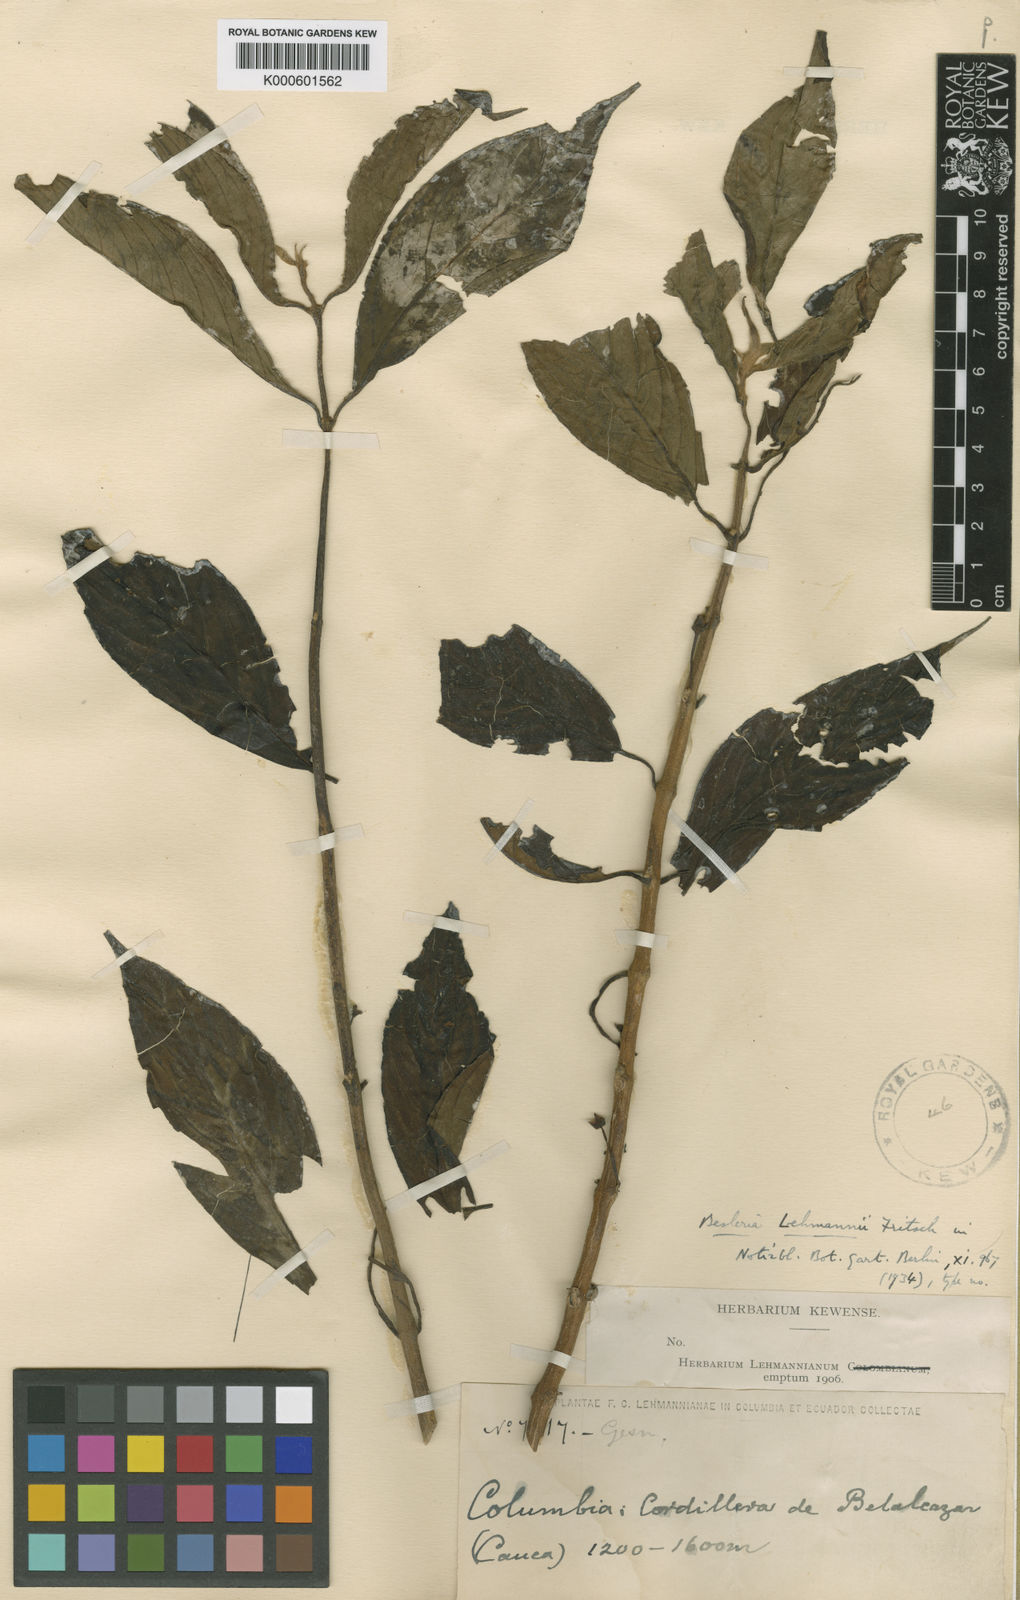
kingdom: Plantae
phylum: Tracheophyta
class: Magnoliopsida
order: Lamiales
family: Gesneriaceae
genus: Besleria
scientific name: Besleria lehmannii
